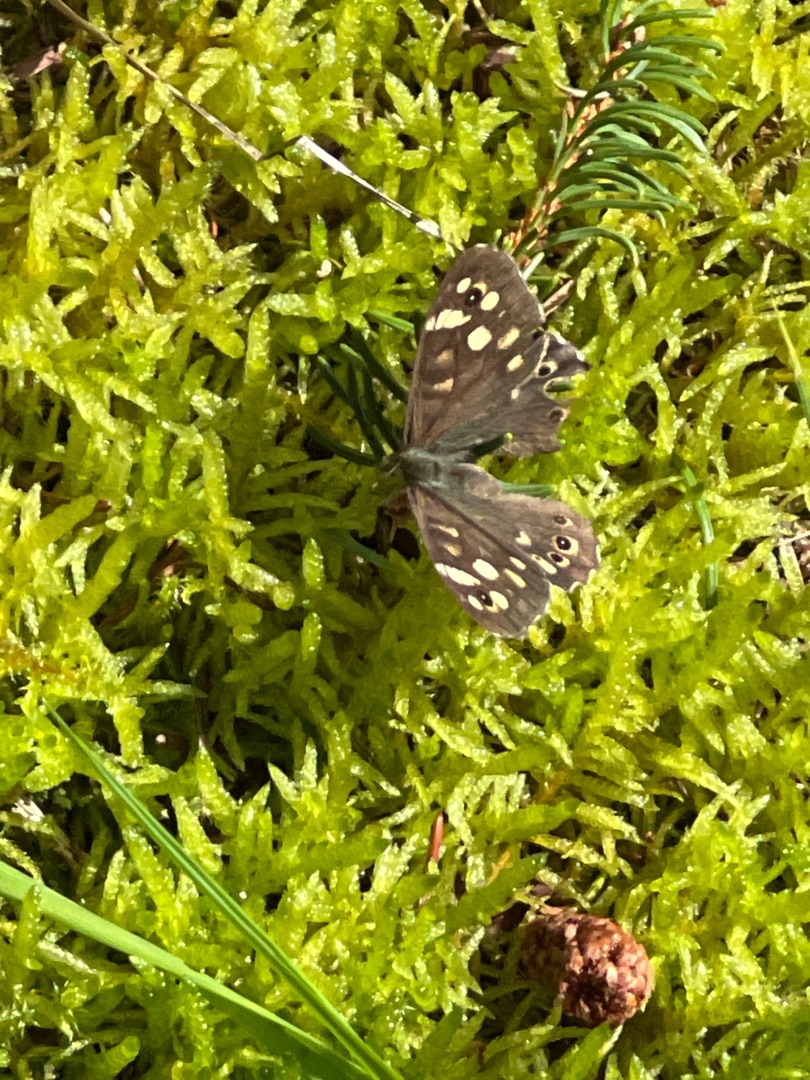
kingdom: Animalia
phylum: Arthropoda
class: Insecta
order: Lepidoptera
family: Nymphalidae
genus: Pararge
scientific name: Pararge aegeria
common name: Skovrandøje
